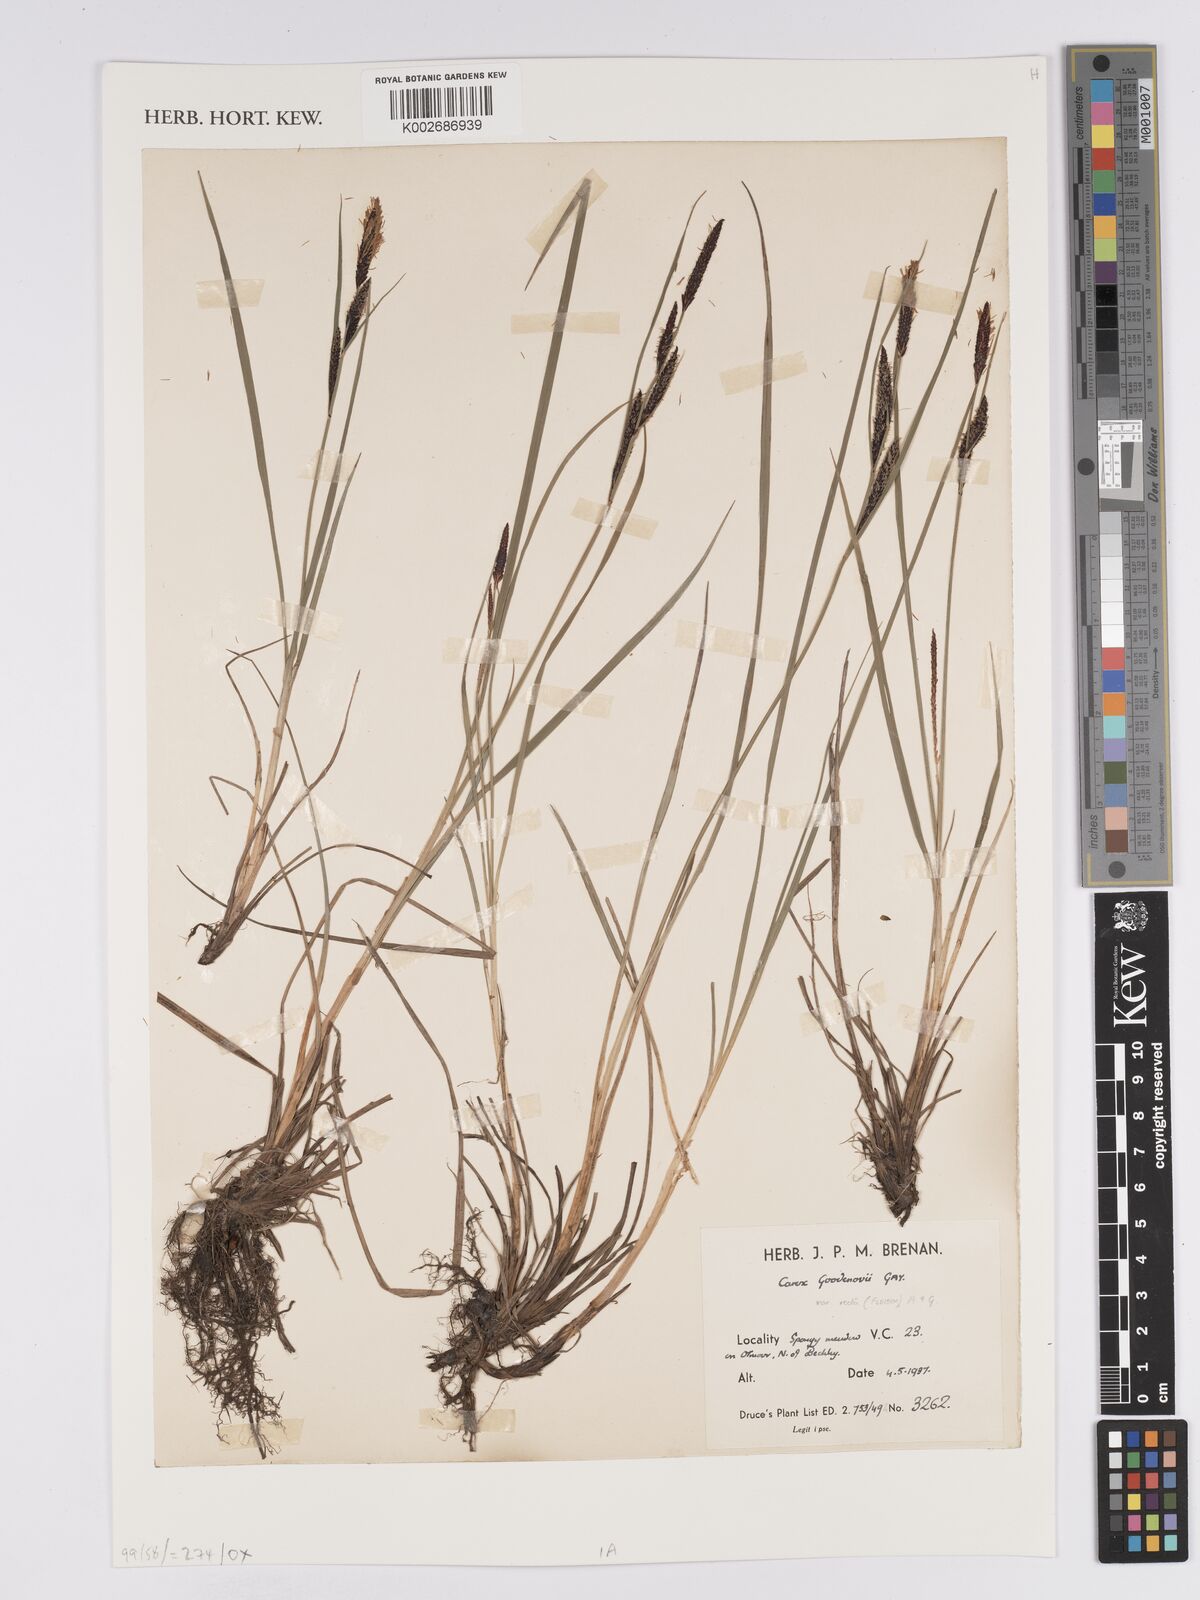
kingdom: Plantae
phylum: Tracheophyta
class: Liliopsida
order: Poales
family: Cyperaceae
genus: Carex
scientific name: Carex nigra
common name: Common sedge
